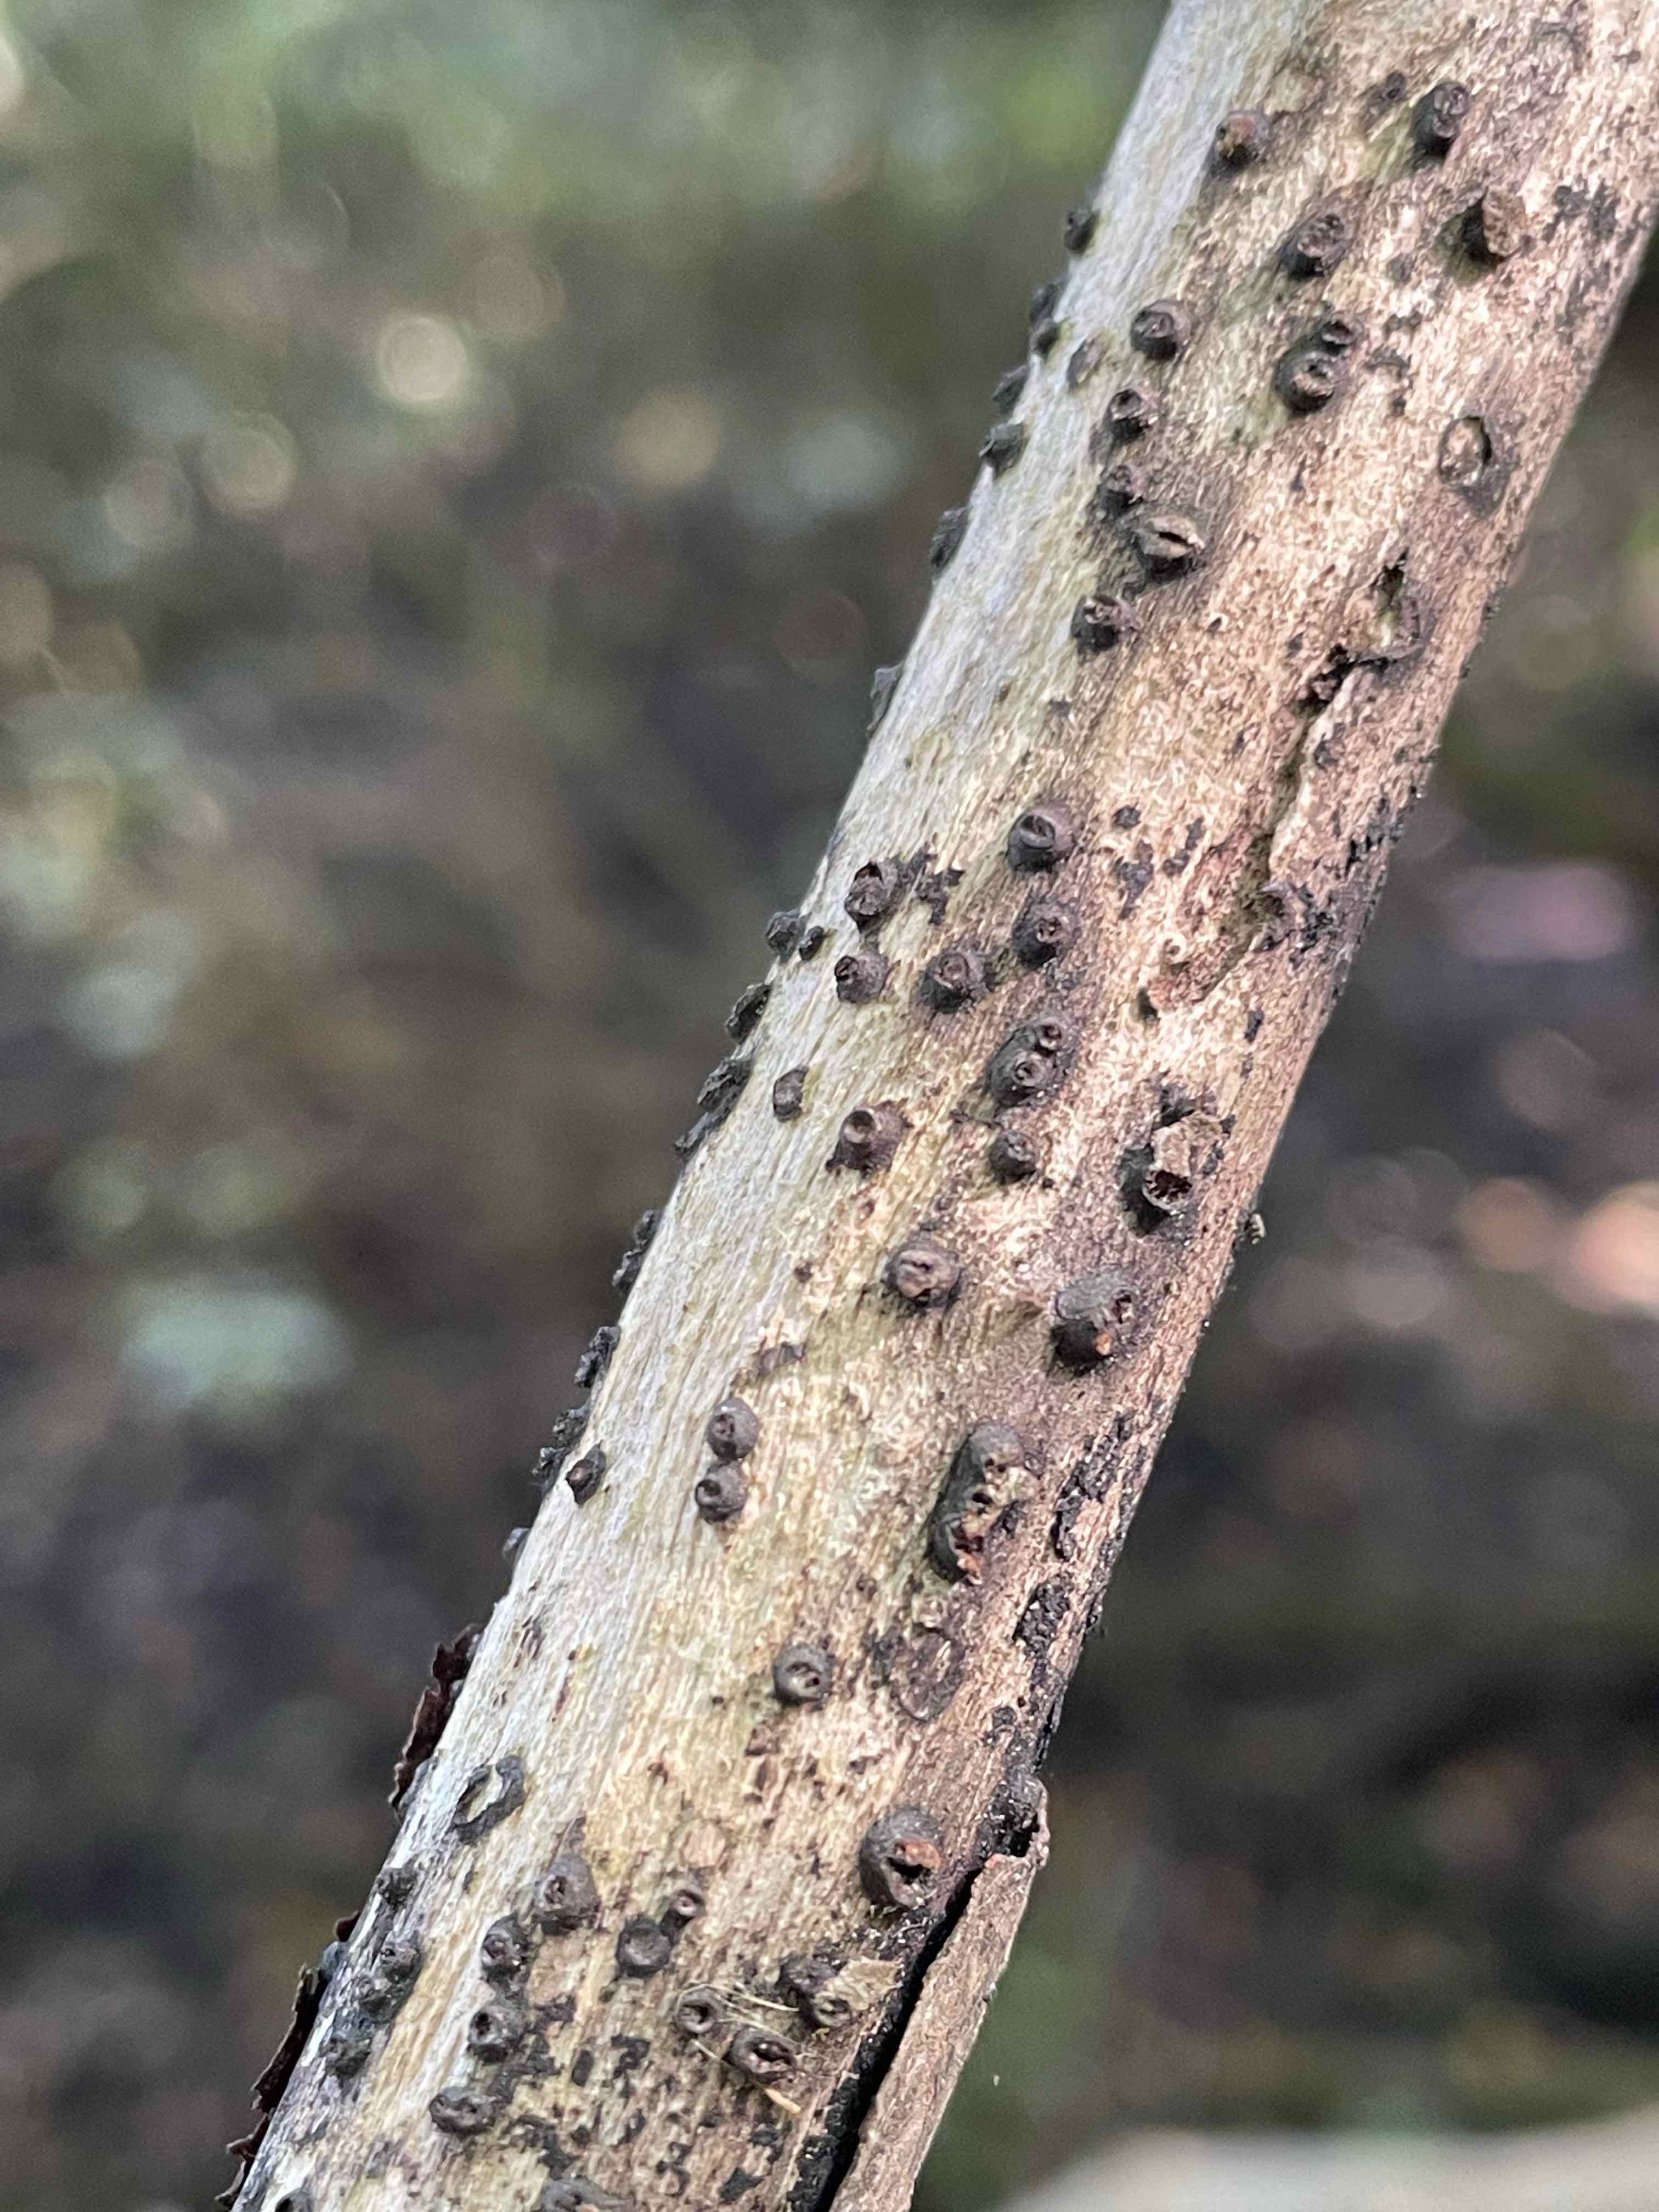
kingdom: Fungi
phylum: Ascomycota
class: Sordariomycetes
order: Xylariales
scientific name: Xylariales
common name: stødsvampordenen
